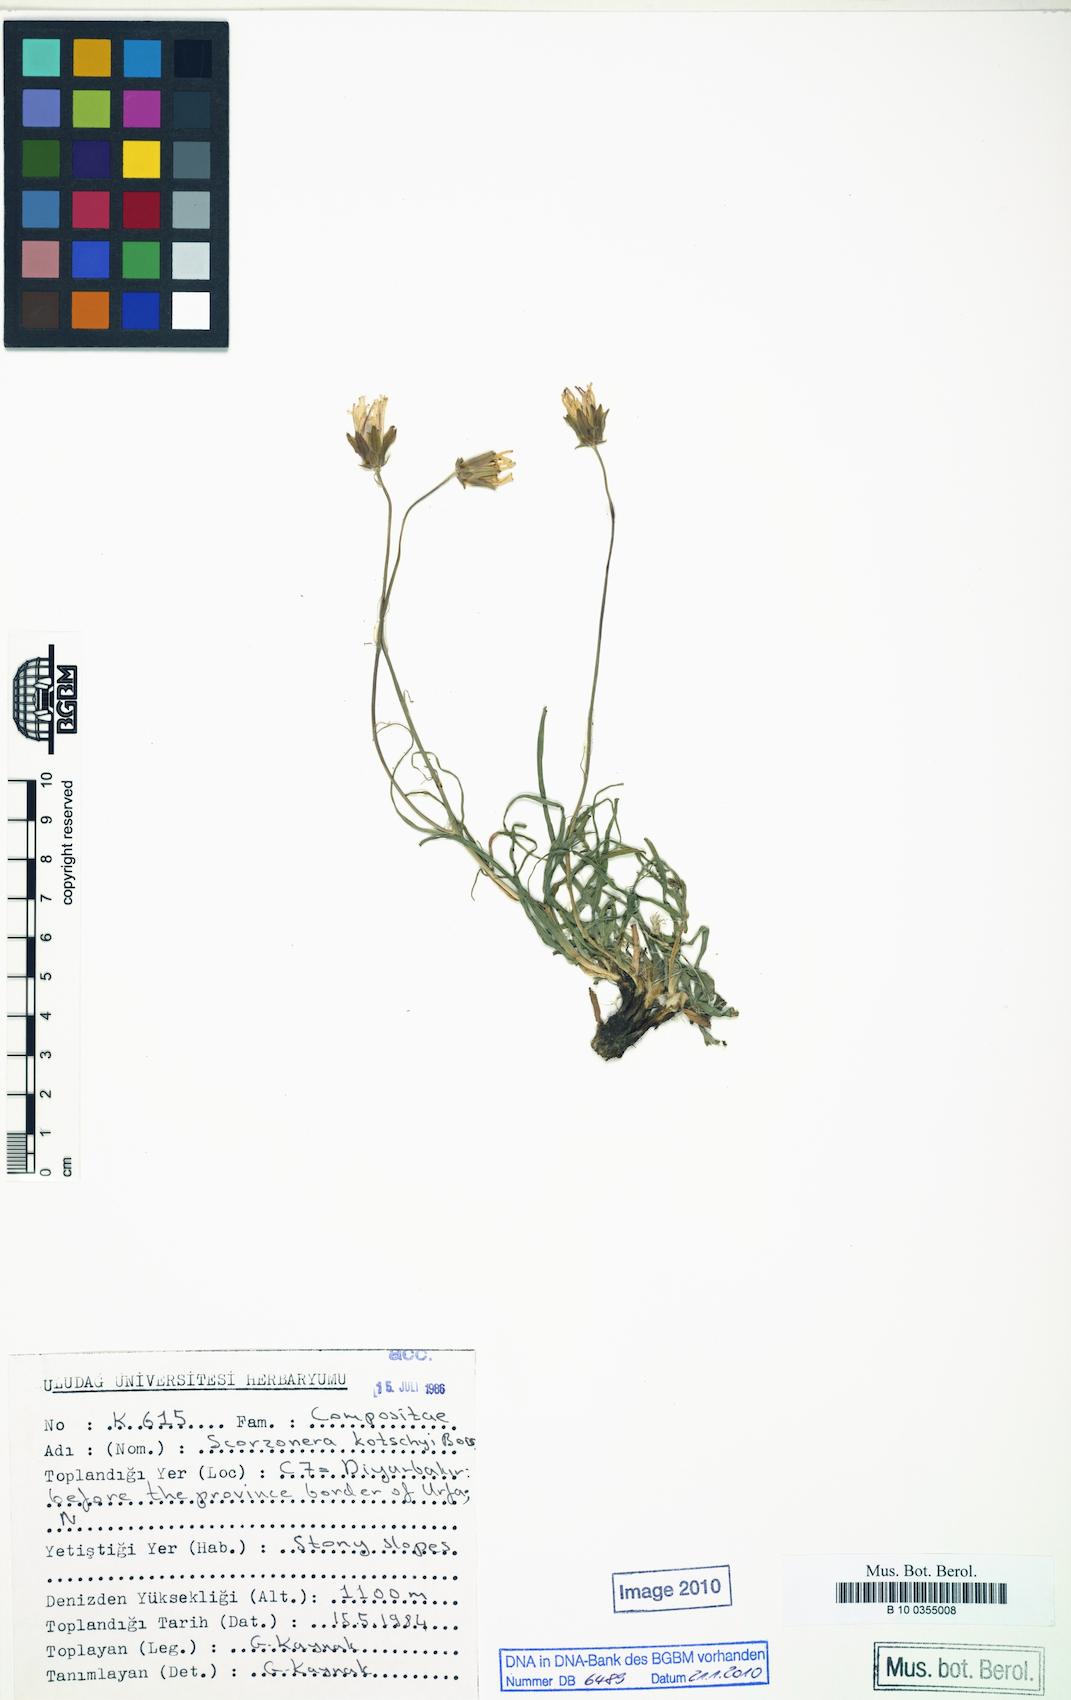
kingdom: Plantae
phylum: Tracheophyta
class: Magnoliopsida
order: Asterales
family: Asteraceae
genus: Turkia
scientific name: Turkia kotschyi
